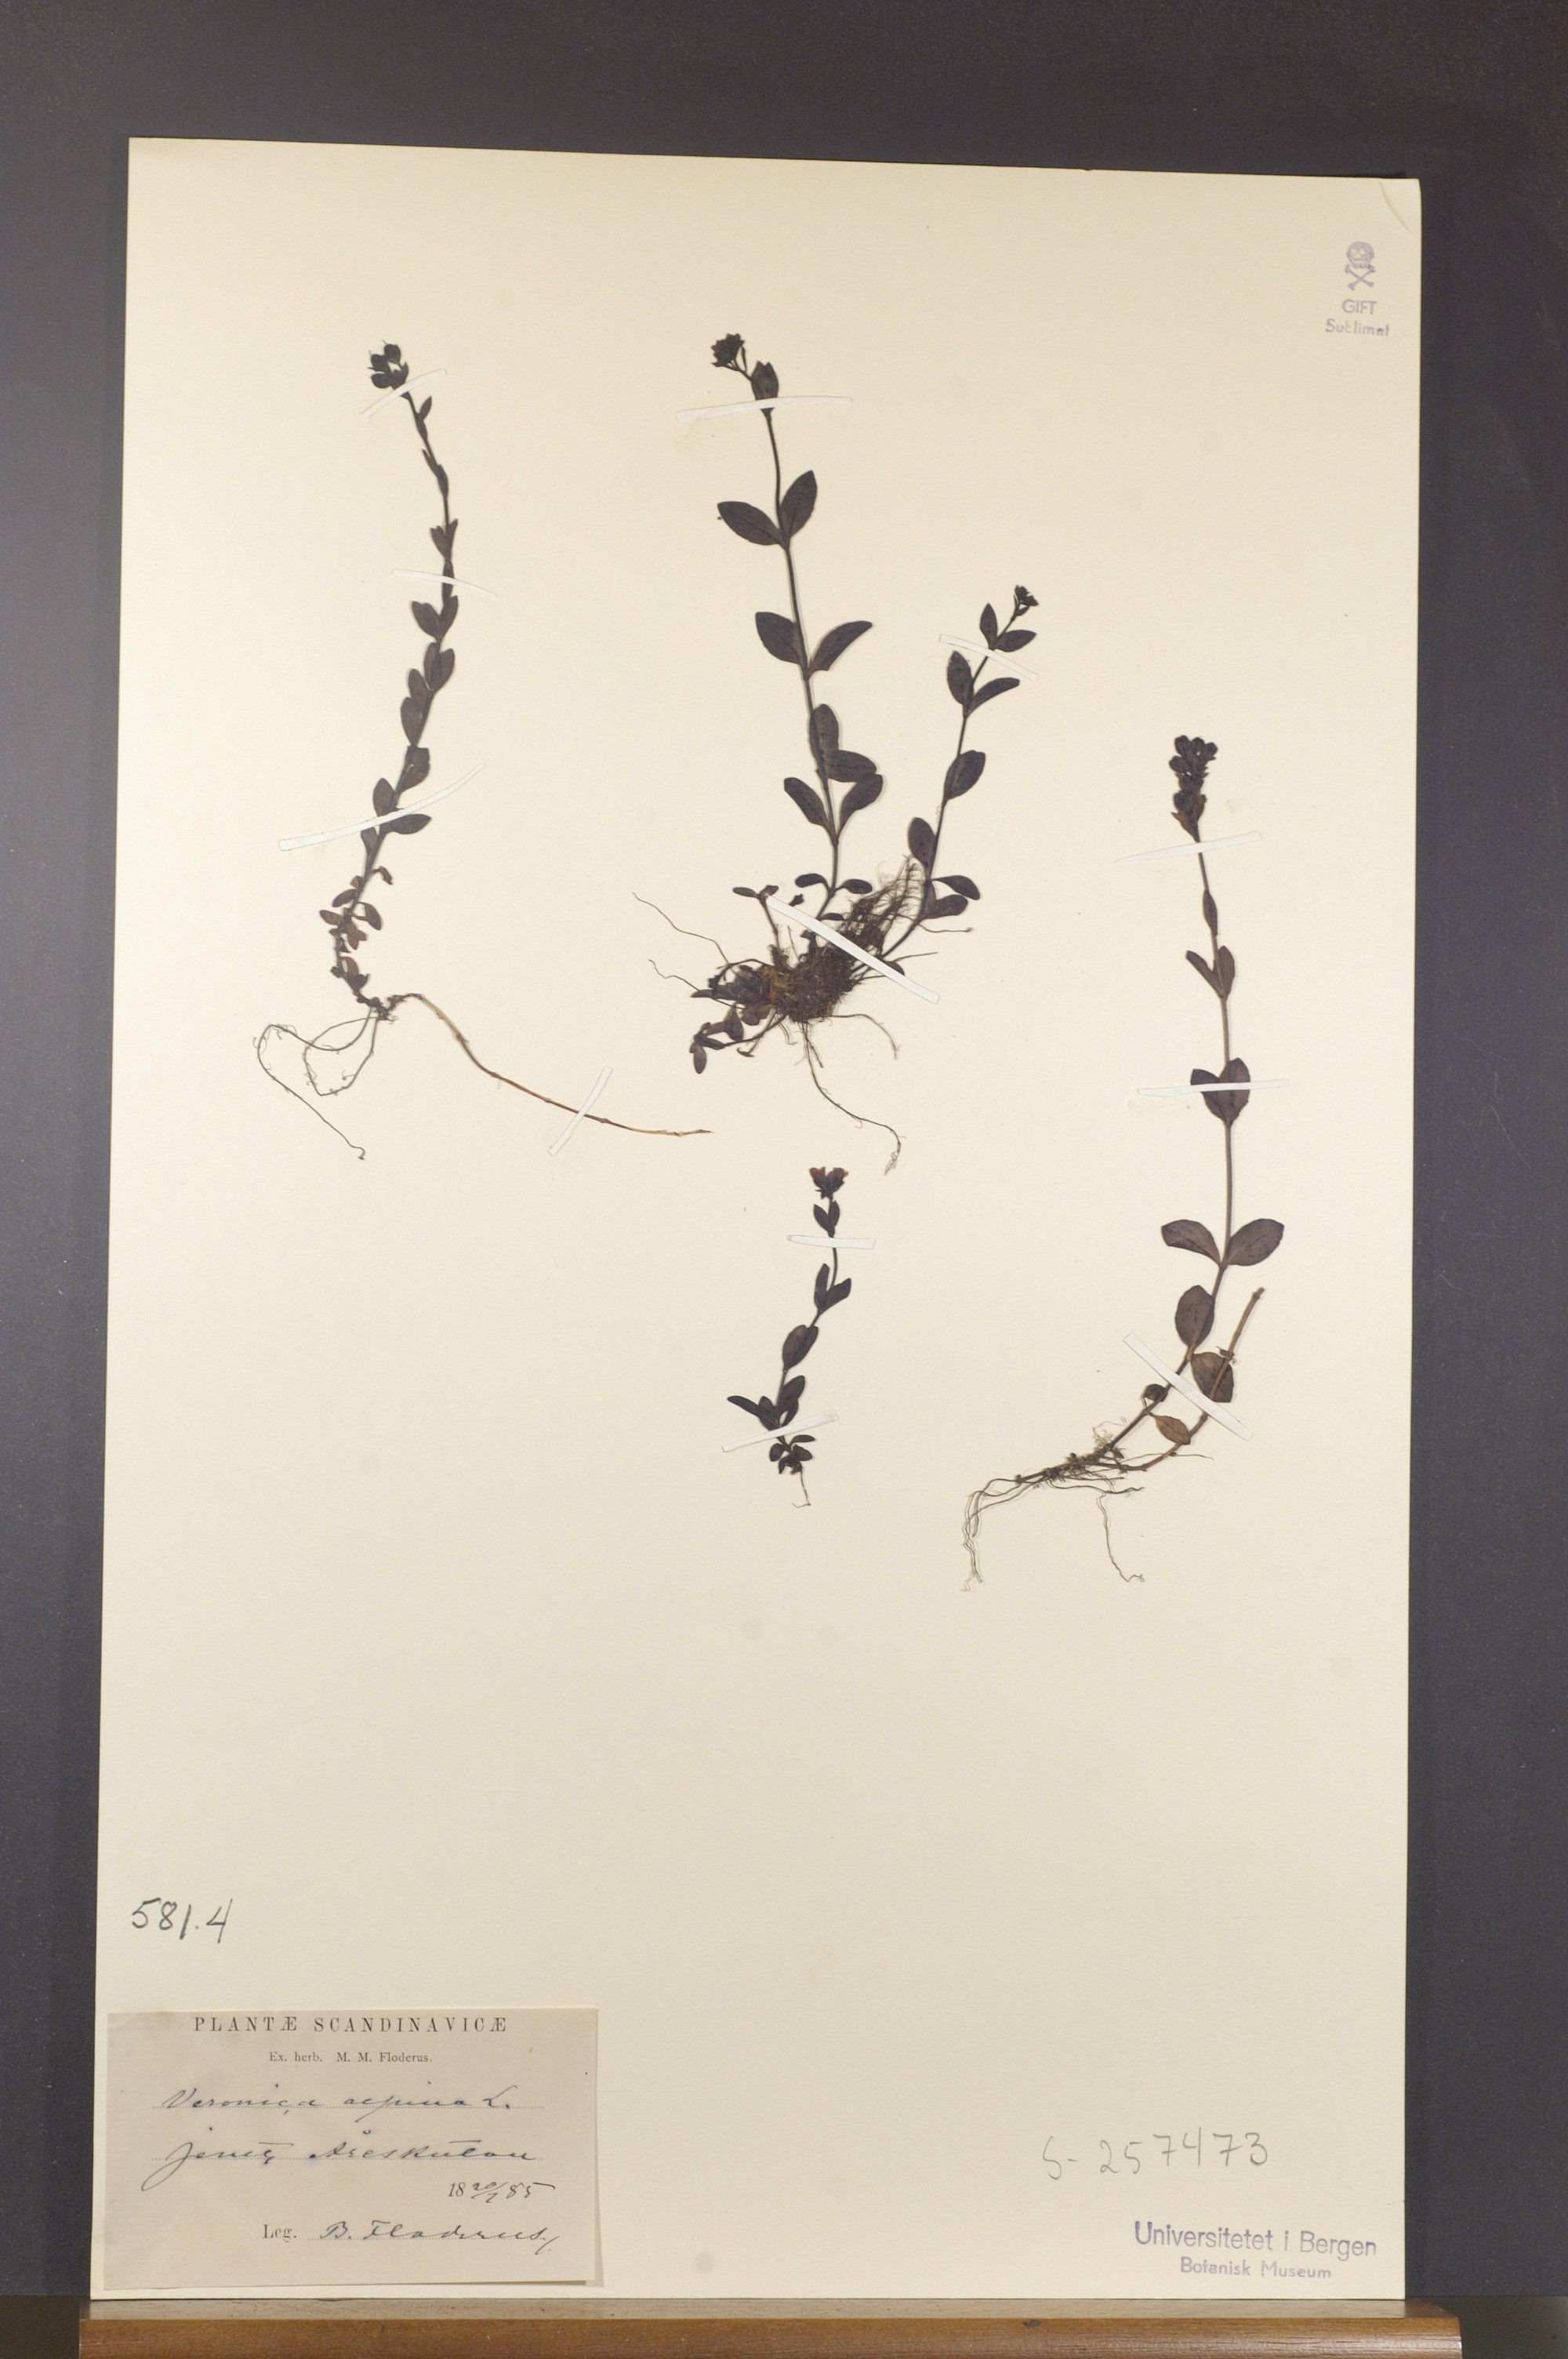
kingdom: Plantae
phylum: Tracheophyta
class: Magnoliopsida
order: Lamiales
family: Plantaginaceae
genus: Veronica
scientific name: Veronica alpina
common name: Alpine speedwell
